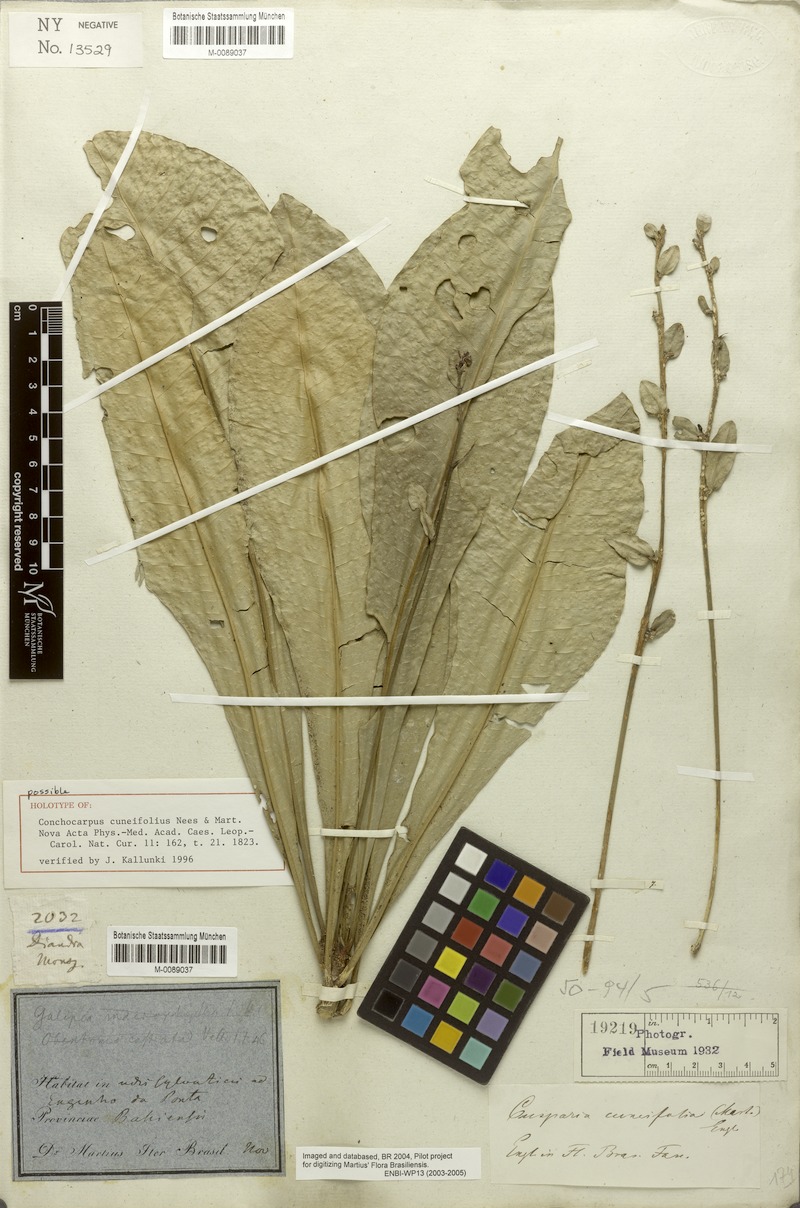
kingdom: Plantae
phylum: Tracheophyta
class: Magnoliopsida
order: Sapindales
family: Rutaceae
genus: Conchocarpus
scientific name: Conchocarpus cuneifolius
